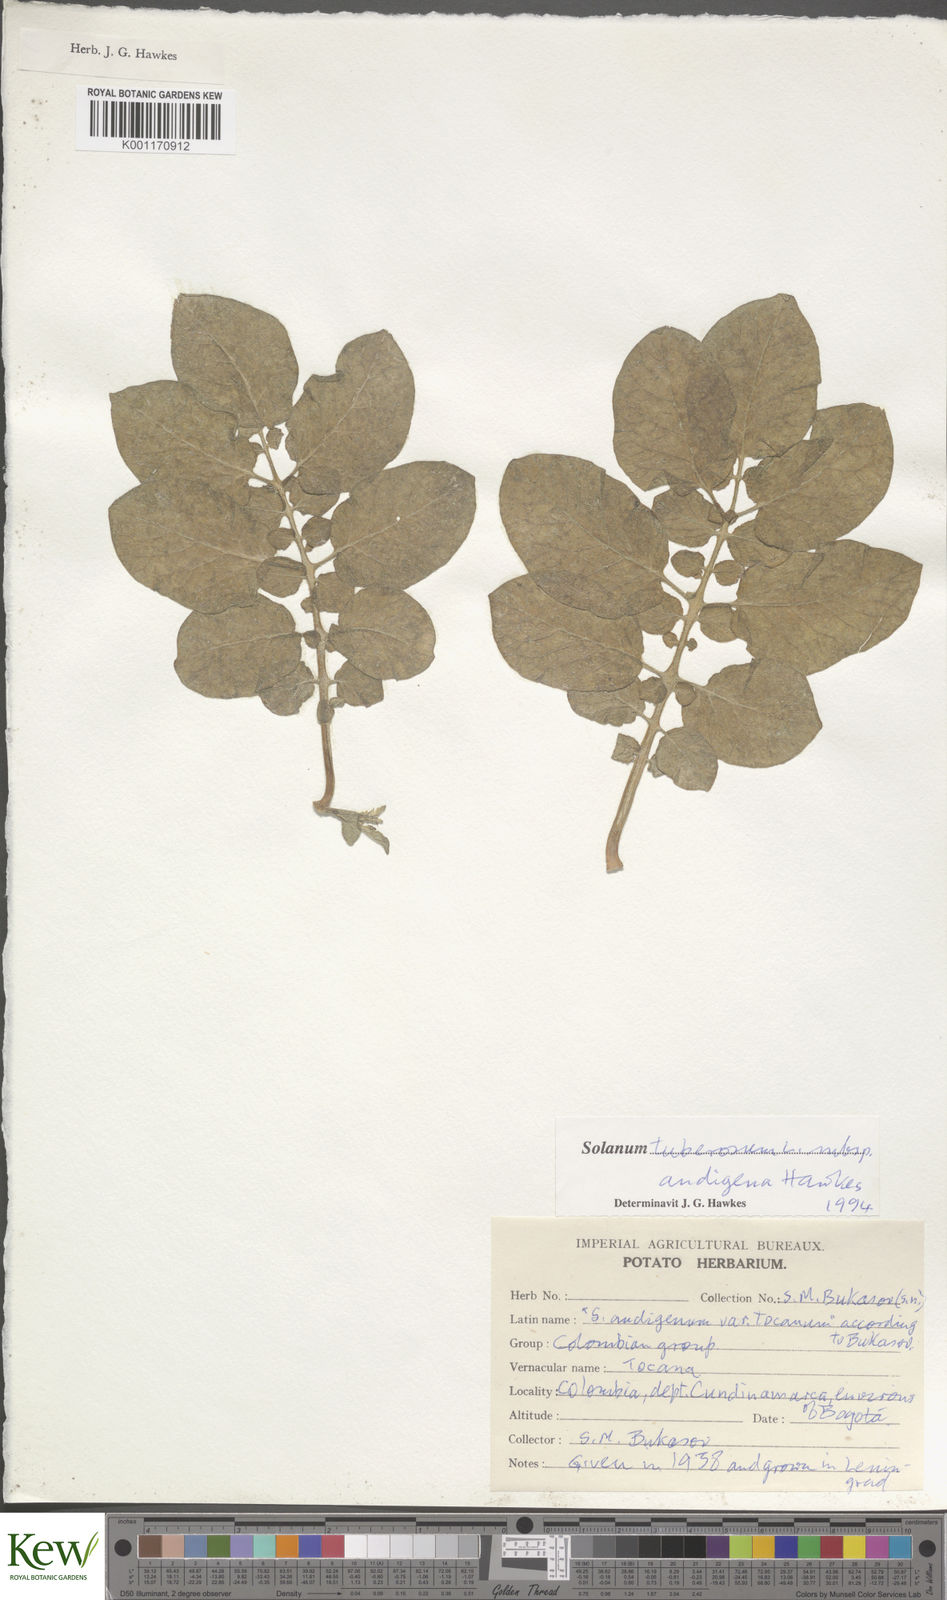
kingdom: Plantae
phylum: Tracheophyta
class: Magnoliopsida
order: Solanales
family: Solanaceae
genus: Solanum
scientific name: Solanum tuberosum
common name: Potato
